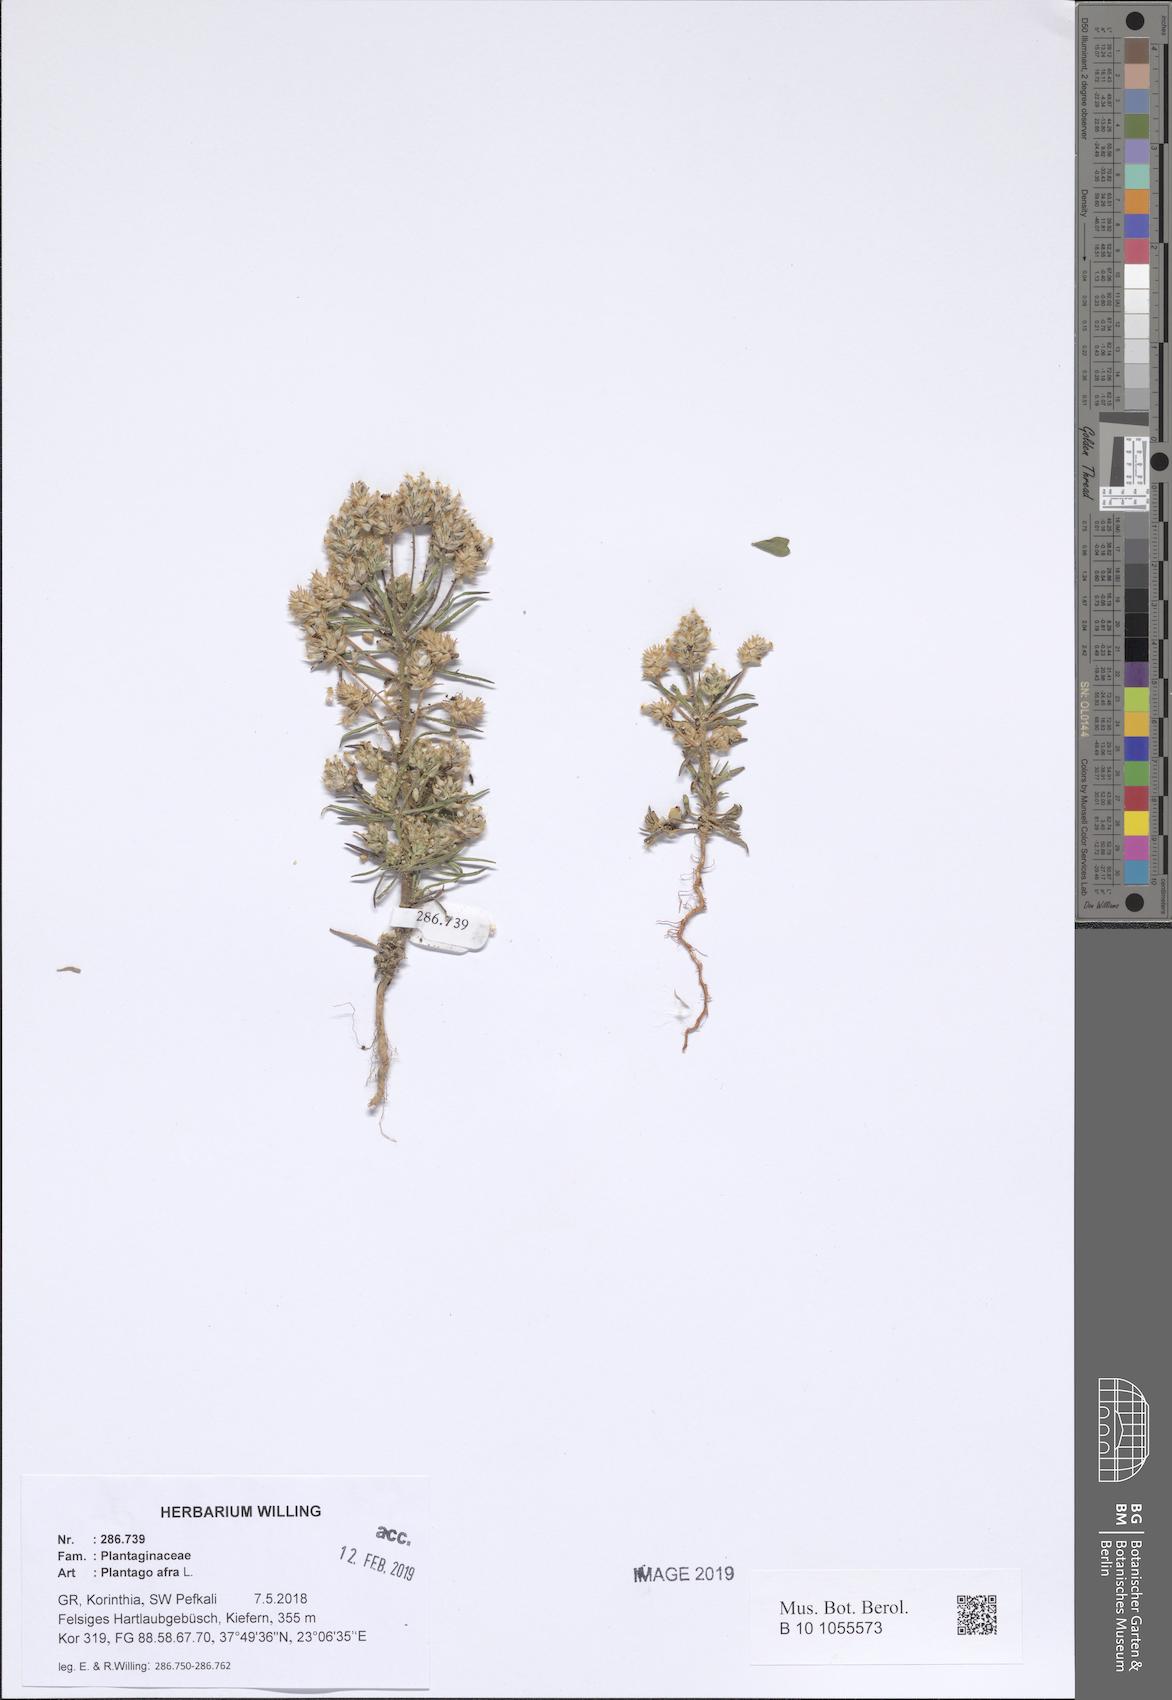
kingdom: Plantae
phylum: Tracheophyta
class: Magnoliopsida
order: Lamiales
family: Plantaginaceae
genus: Plantago
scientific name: Plantago afra
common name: Glandular plantain
